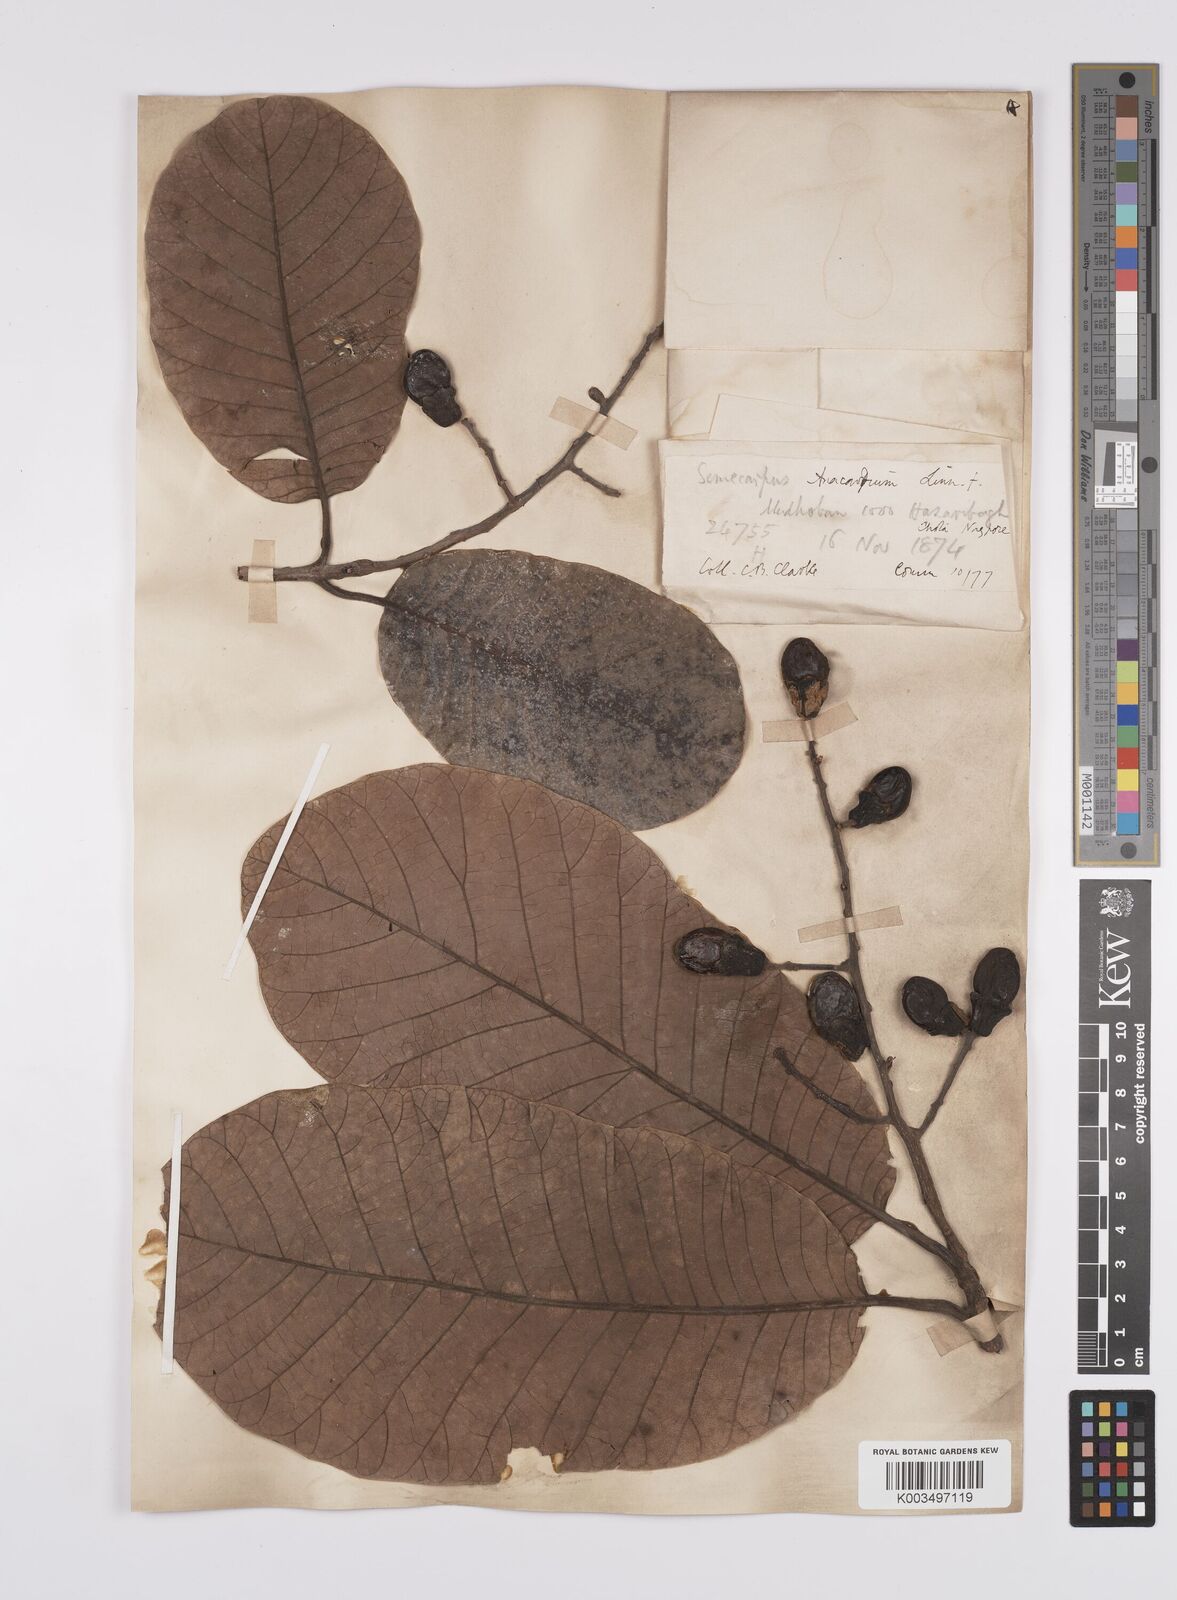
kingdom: Plantae
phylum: Tracheophyta
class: Magnoliopsida
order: Sapindales
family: Anacardiaceae
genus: Semecarpus
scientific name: Semecarpus anacardium
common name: Marking nut-tree
